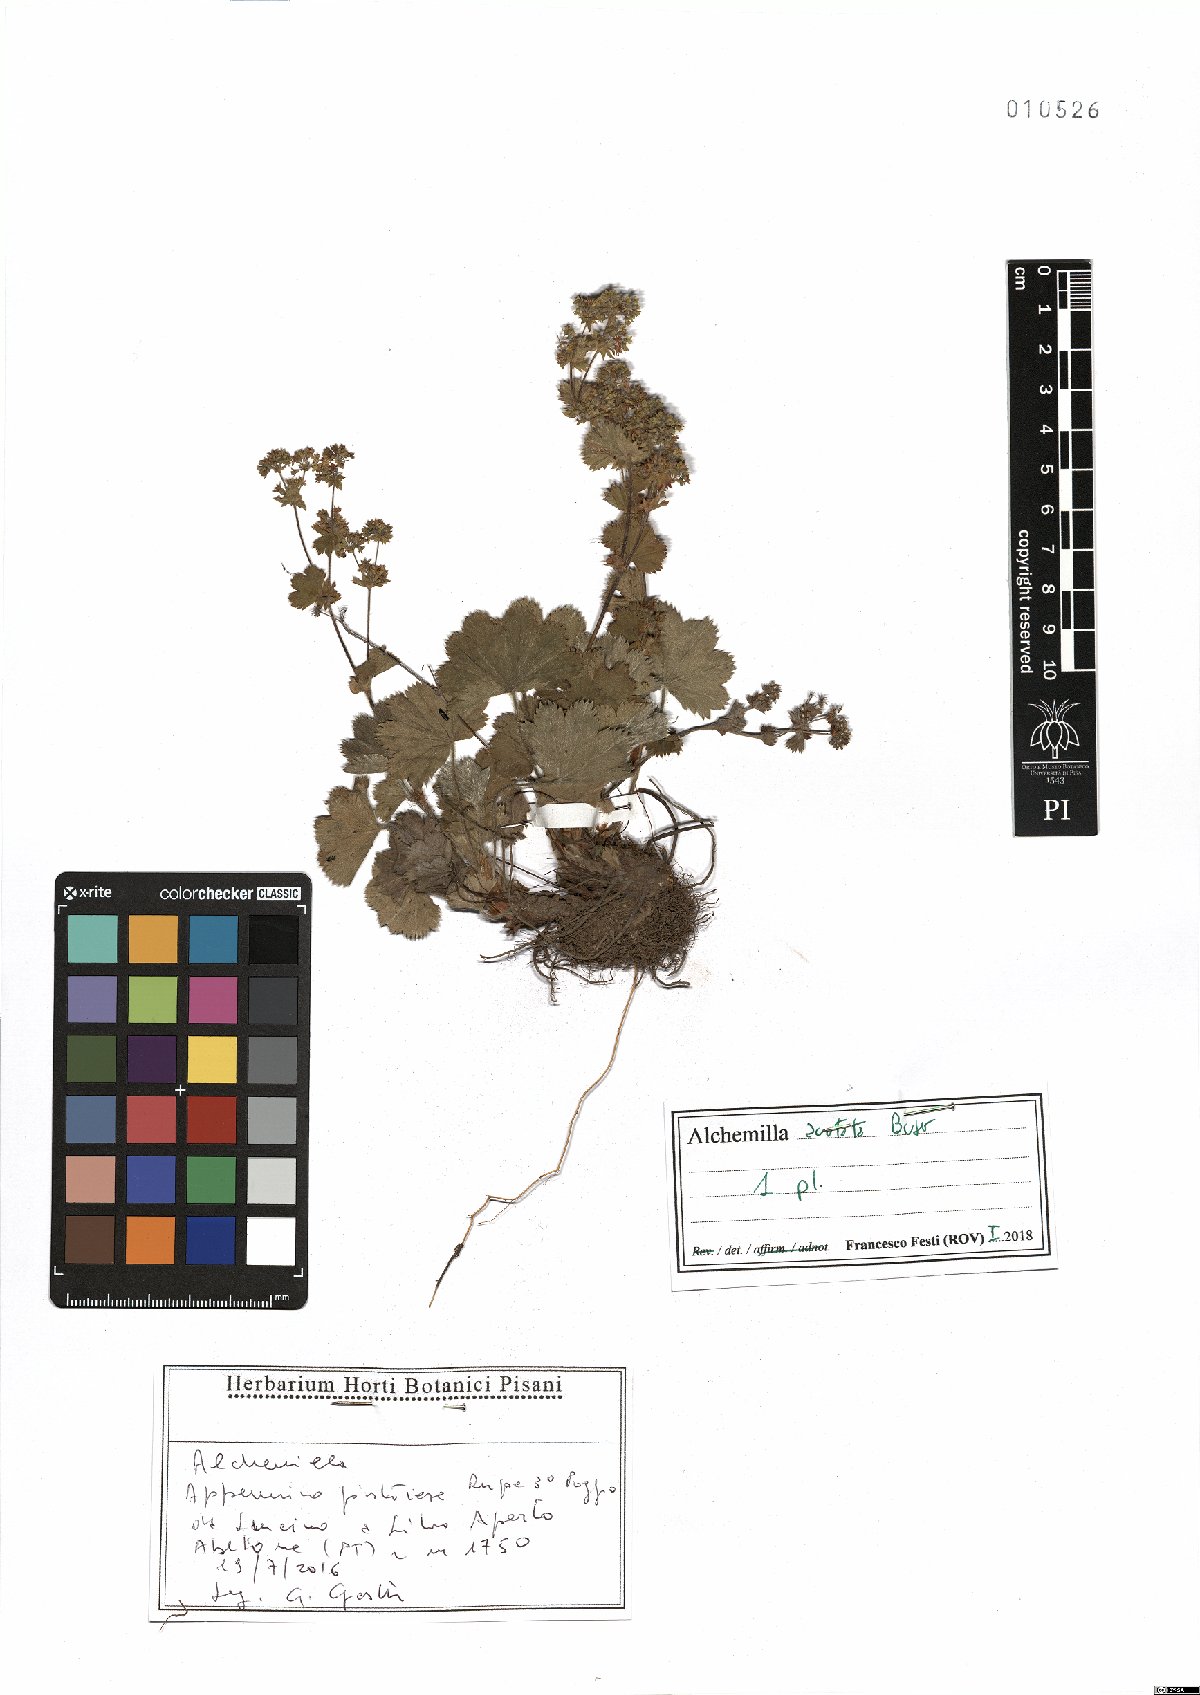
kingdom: Plantae
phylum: Tracheophyta
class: Magnoliopsida
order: Rosales
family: Rosaceae
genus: Alchemilla
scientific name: Alchemilla acutata
